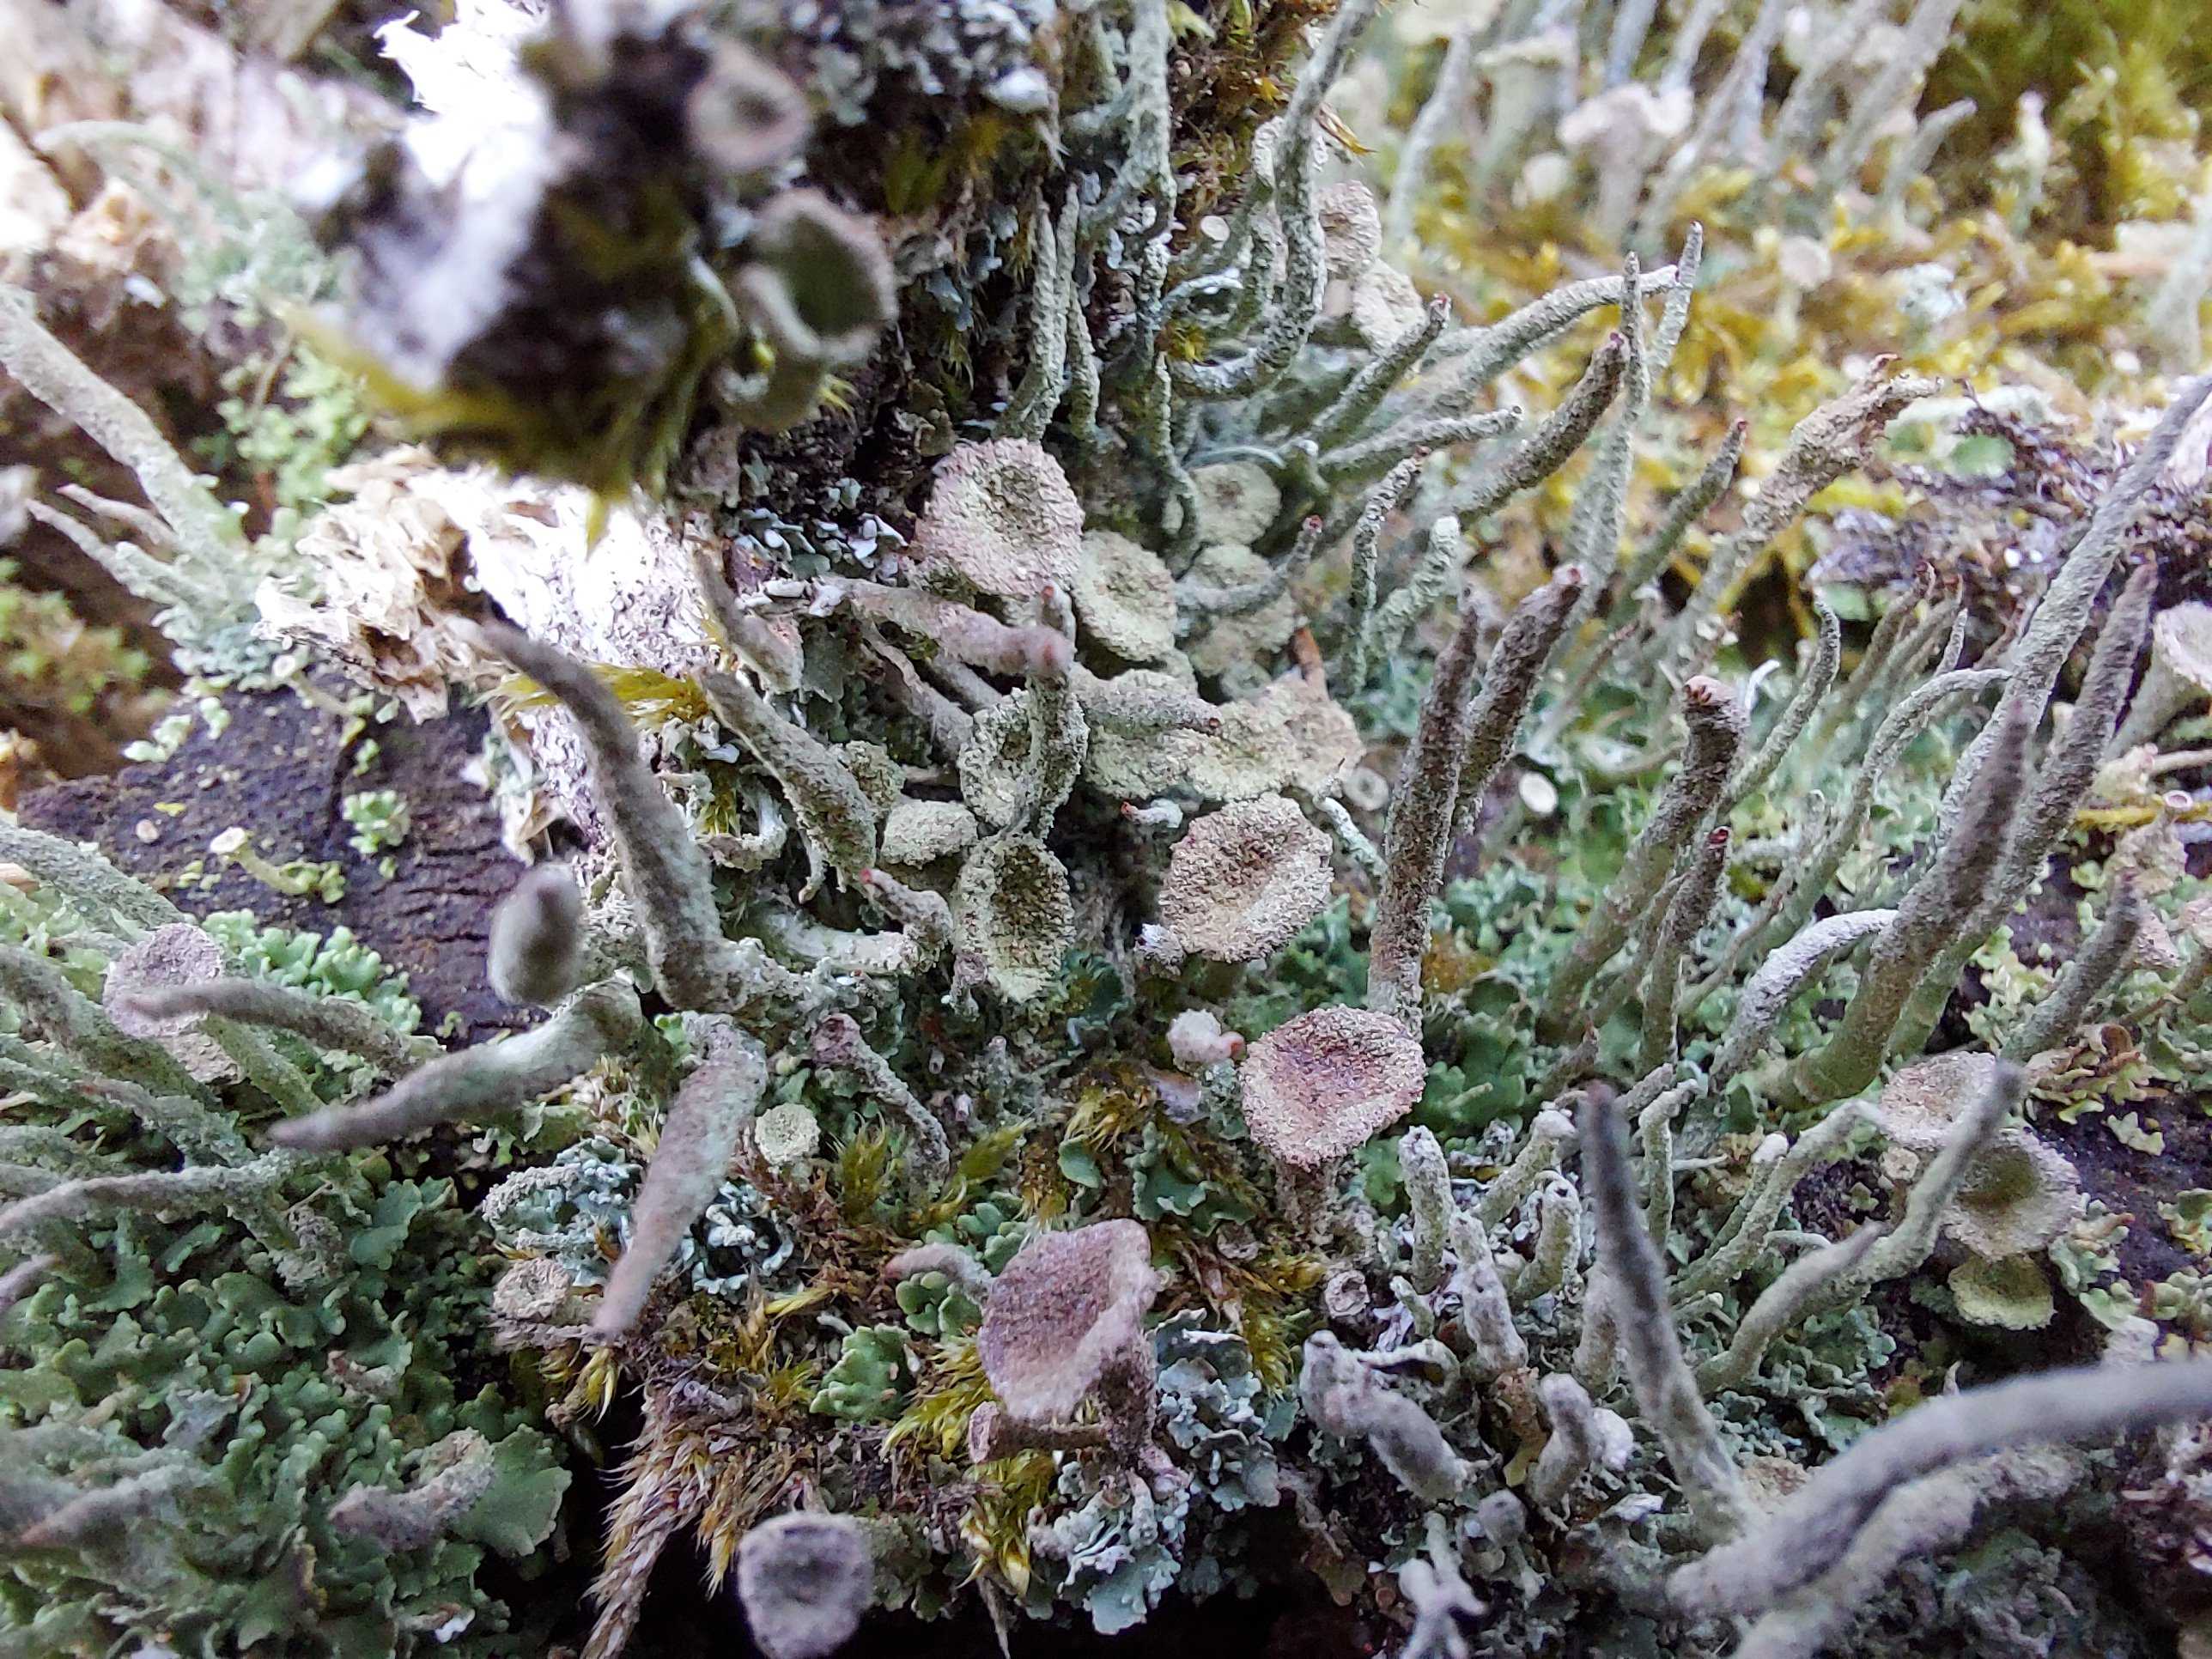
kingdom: Fungi
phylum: Ascomycota
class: Lecanoromycetes
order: Lecanorales
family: Cladoniaceae
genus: Cladonia
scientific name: Cladonia
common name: brungrøn bægerlav
